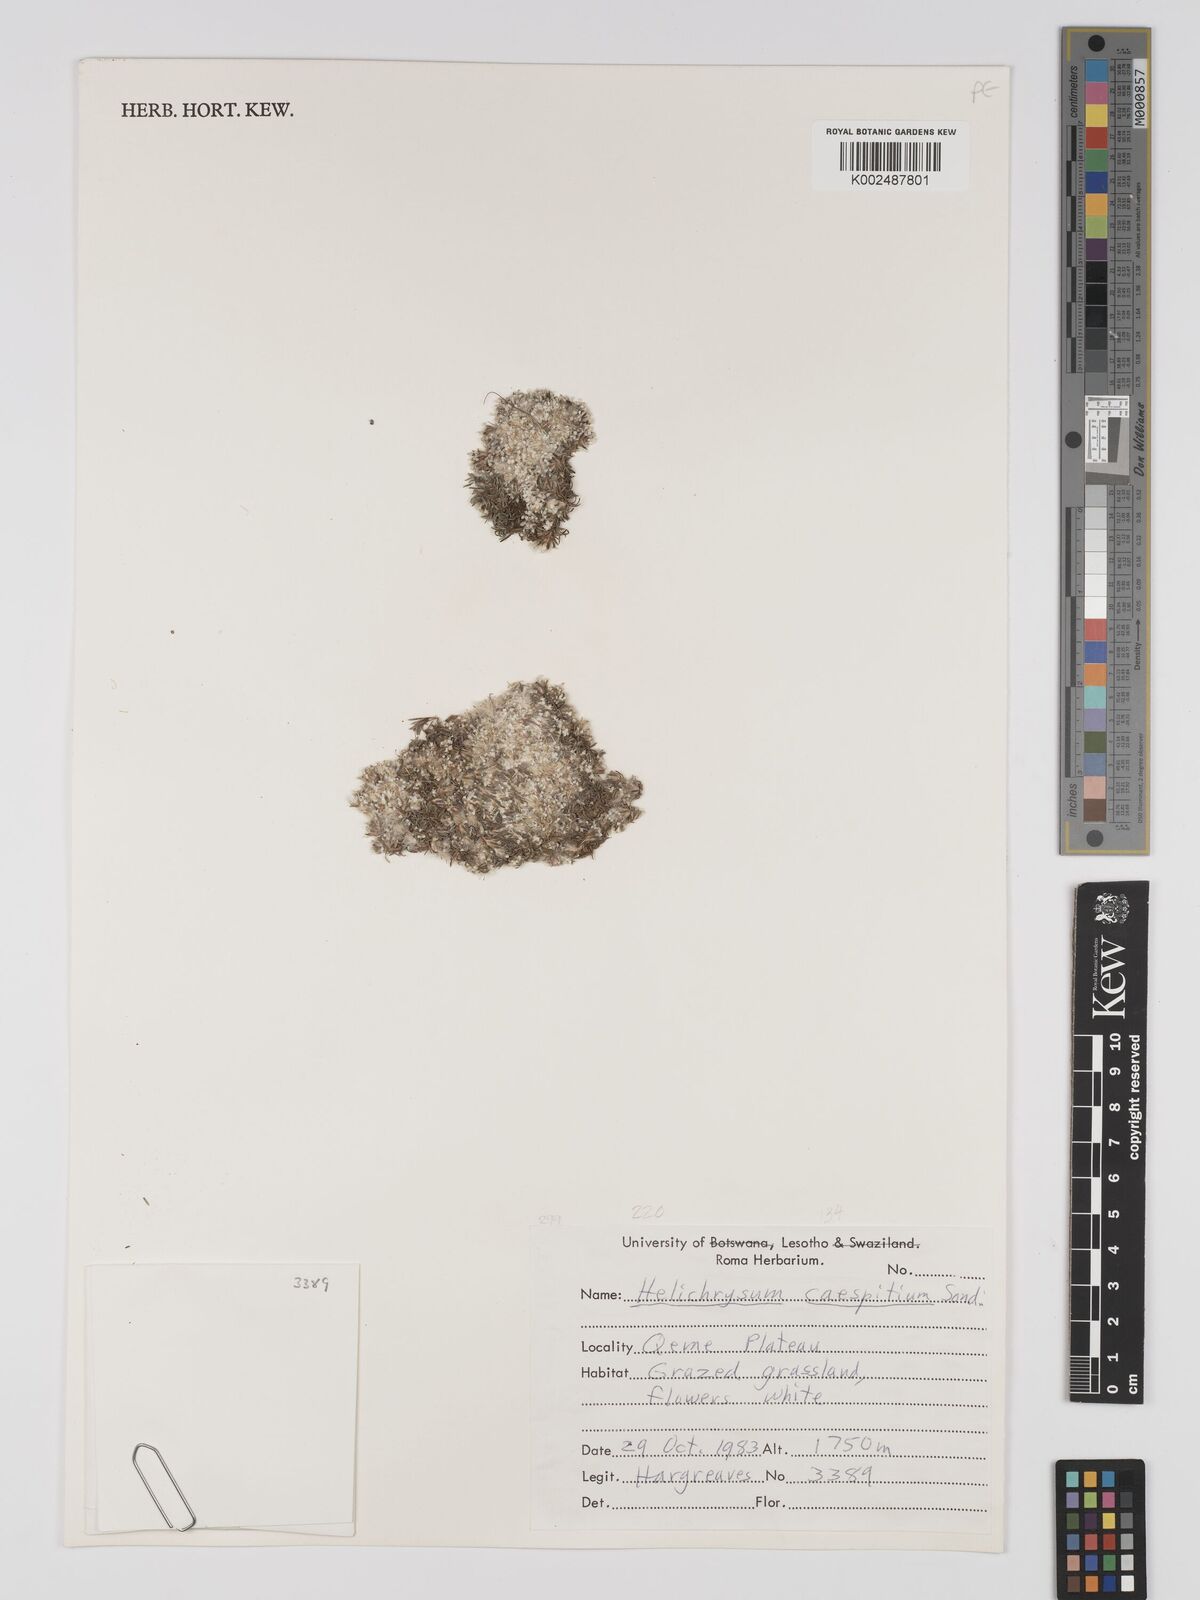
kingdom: Plantae
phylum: Tracheophyta
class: Magnoliopsida
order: Asterales
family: Asteraceae
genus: Helichrysum
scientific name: Helichrysum caespititium
